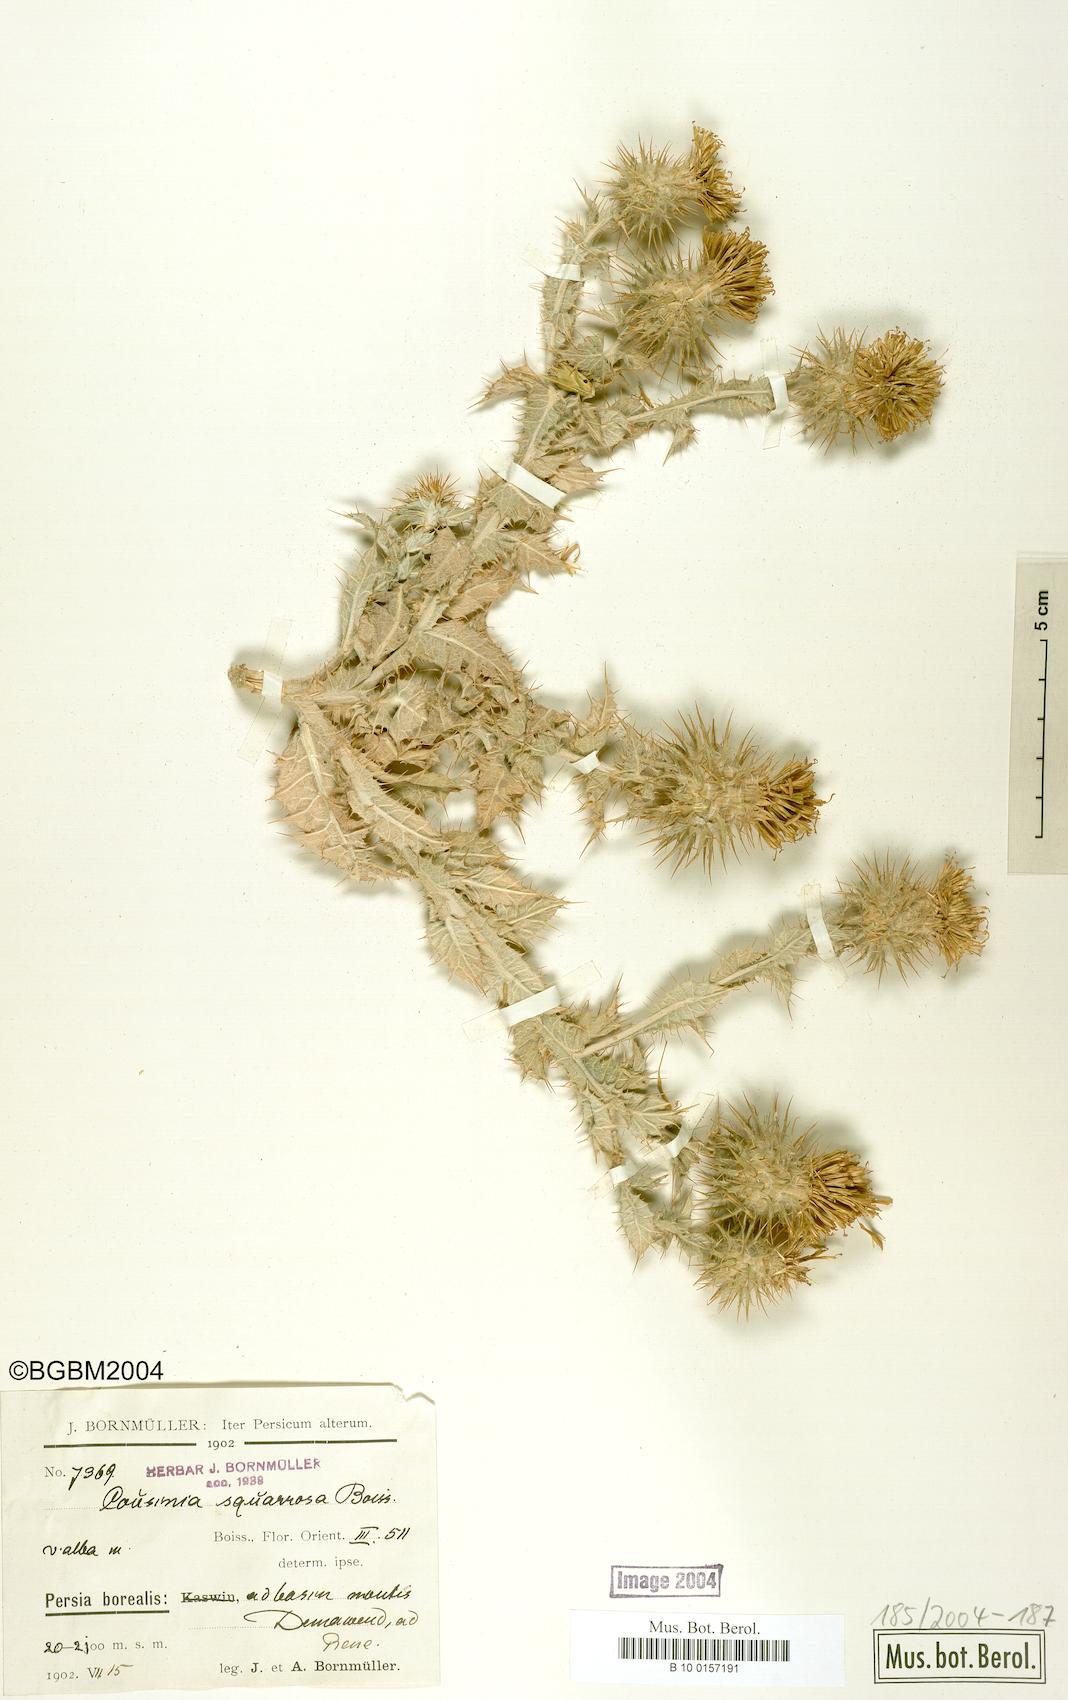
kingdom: Plantae
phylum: Tracheophyta
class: Magnoliopsida
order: Asterales
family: Asteraceae
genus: Cousinia
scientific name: Cousinia calocephala
